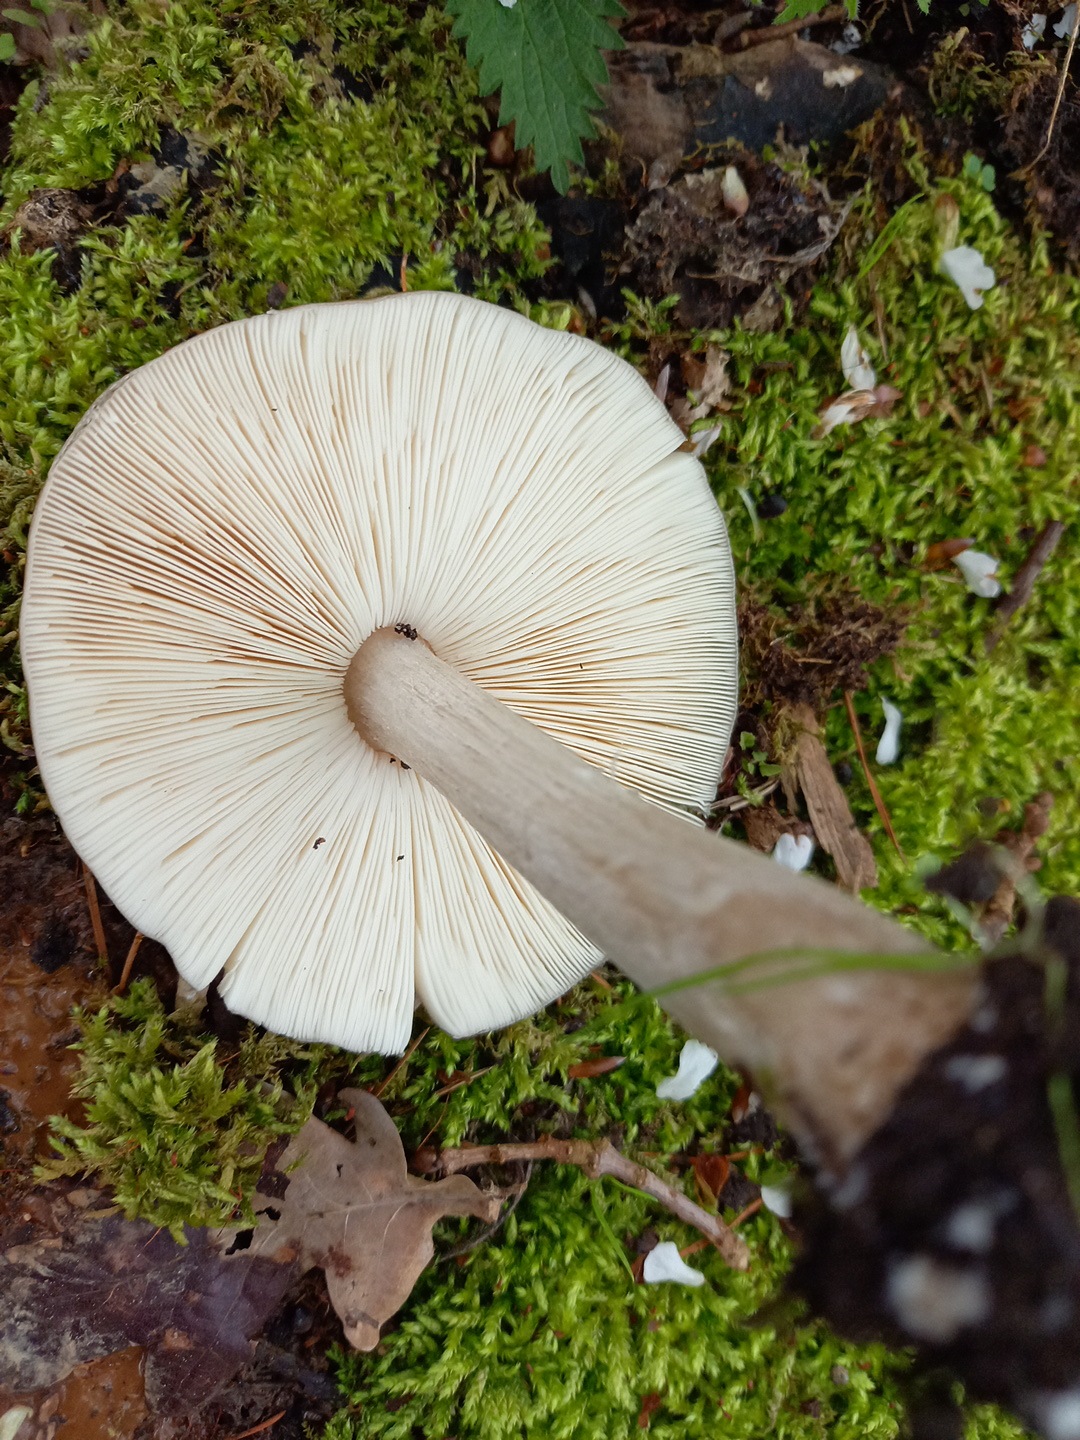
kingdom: Fungi
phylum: Basidiomycota
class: Agaricomycetes
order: Agaricales
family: Pluteaceae
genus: Pluteus
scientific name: Pluteus cervinus
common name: sodfarvet skærmhat
